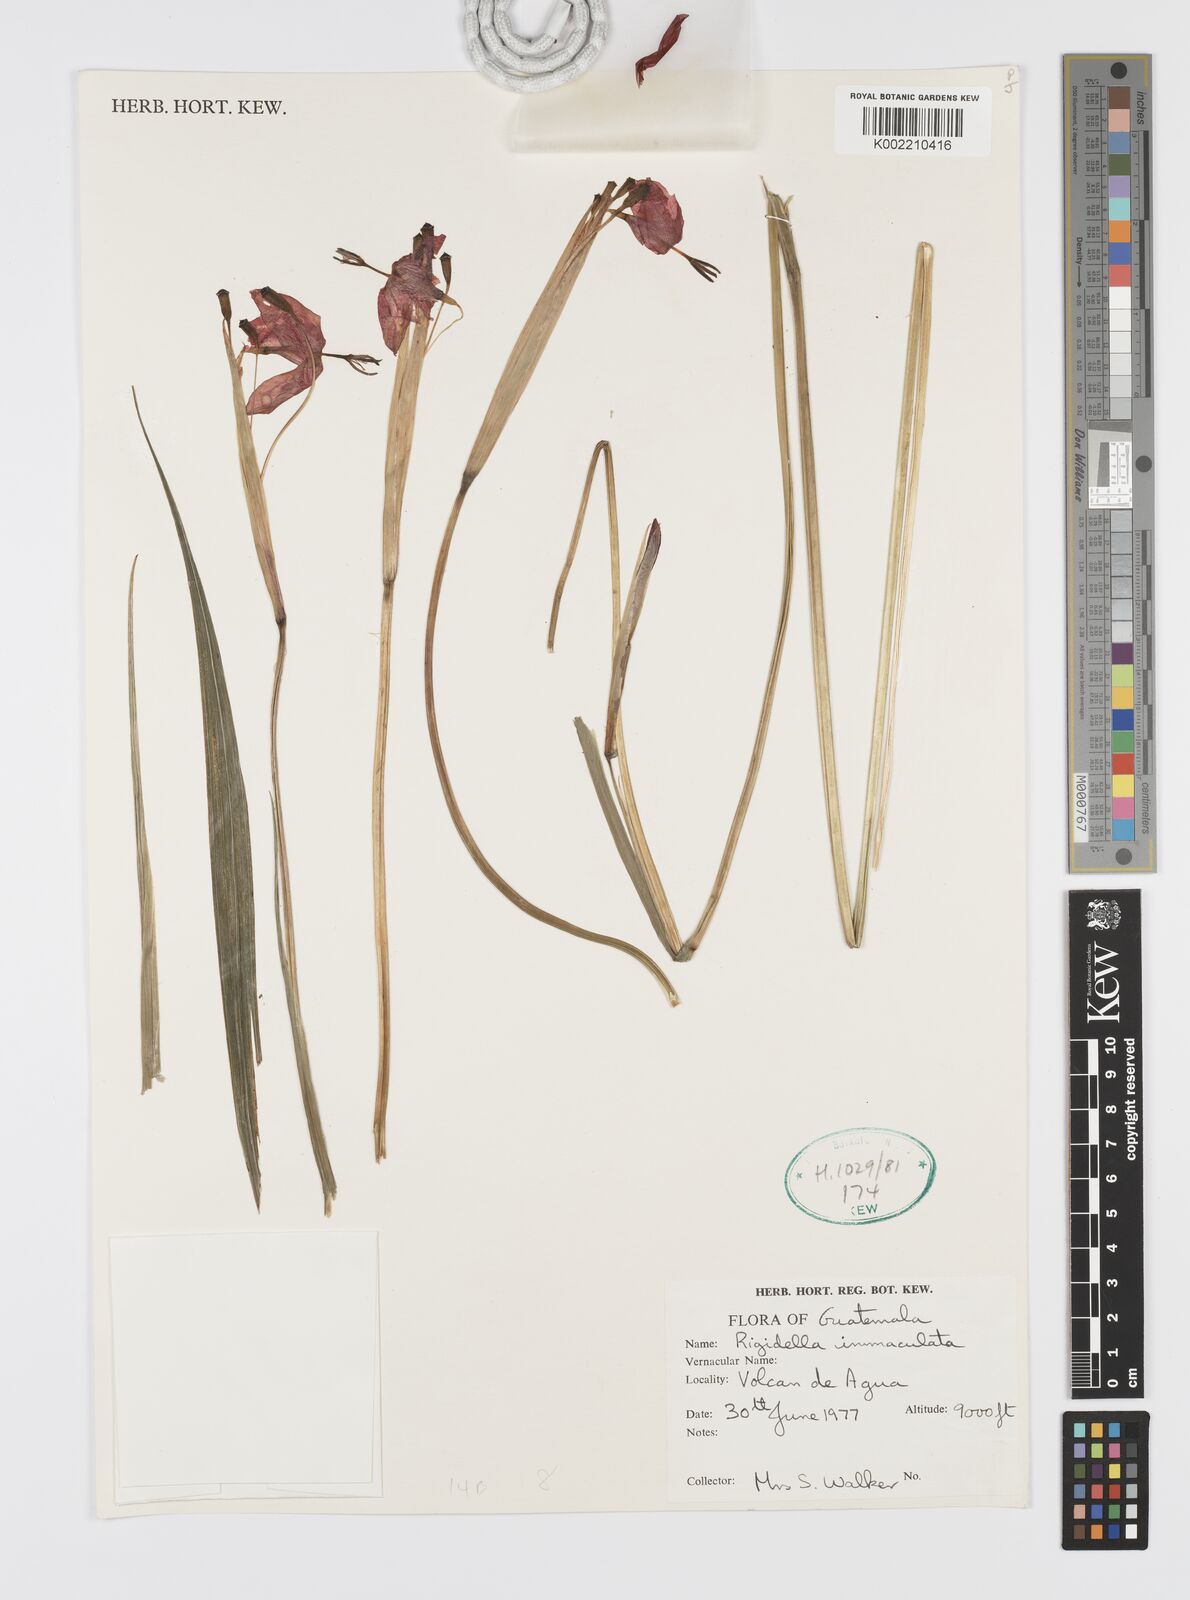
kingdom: Plantae
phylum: Tracheophyta
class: Liliopsida
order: Asparagales
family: Iridaceae
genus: Tigridia
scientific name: Tigridia immaculata
